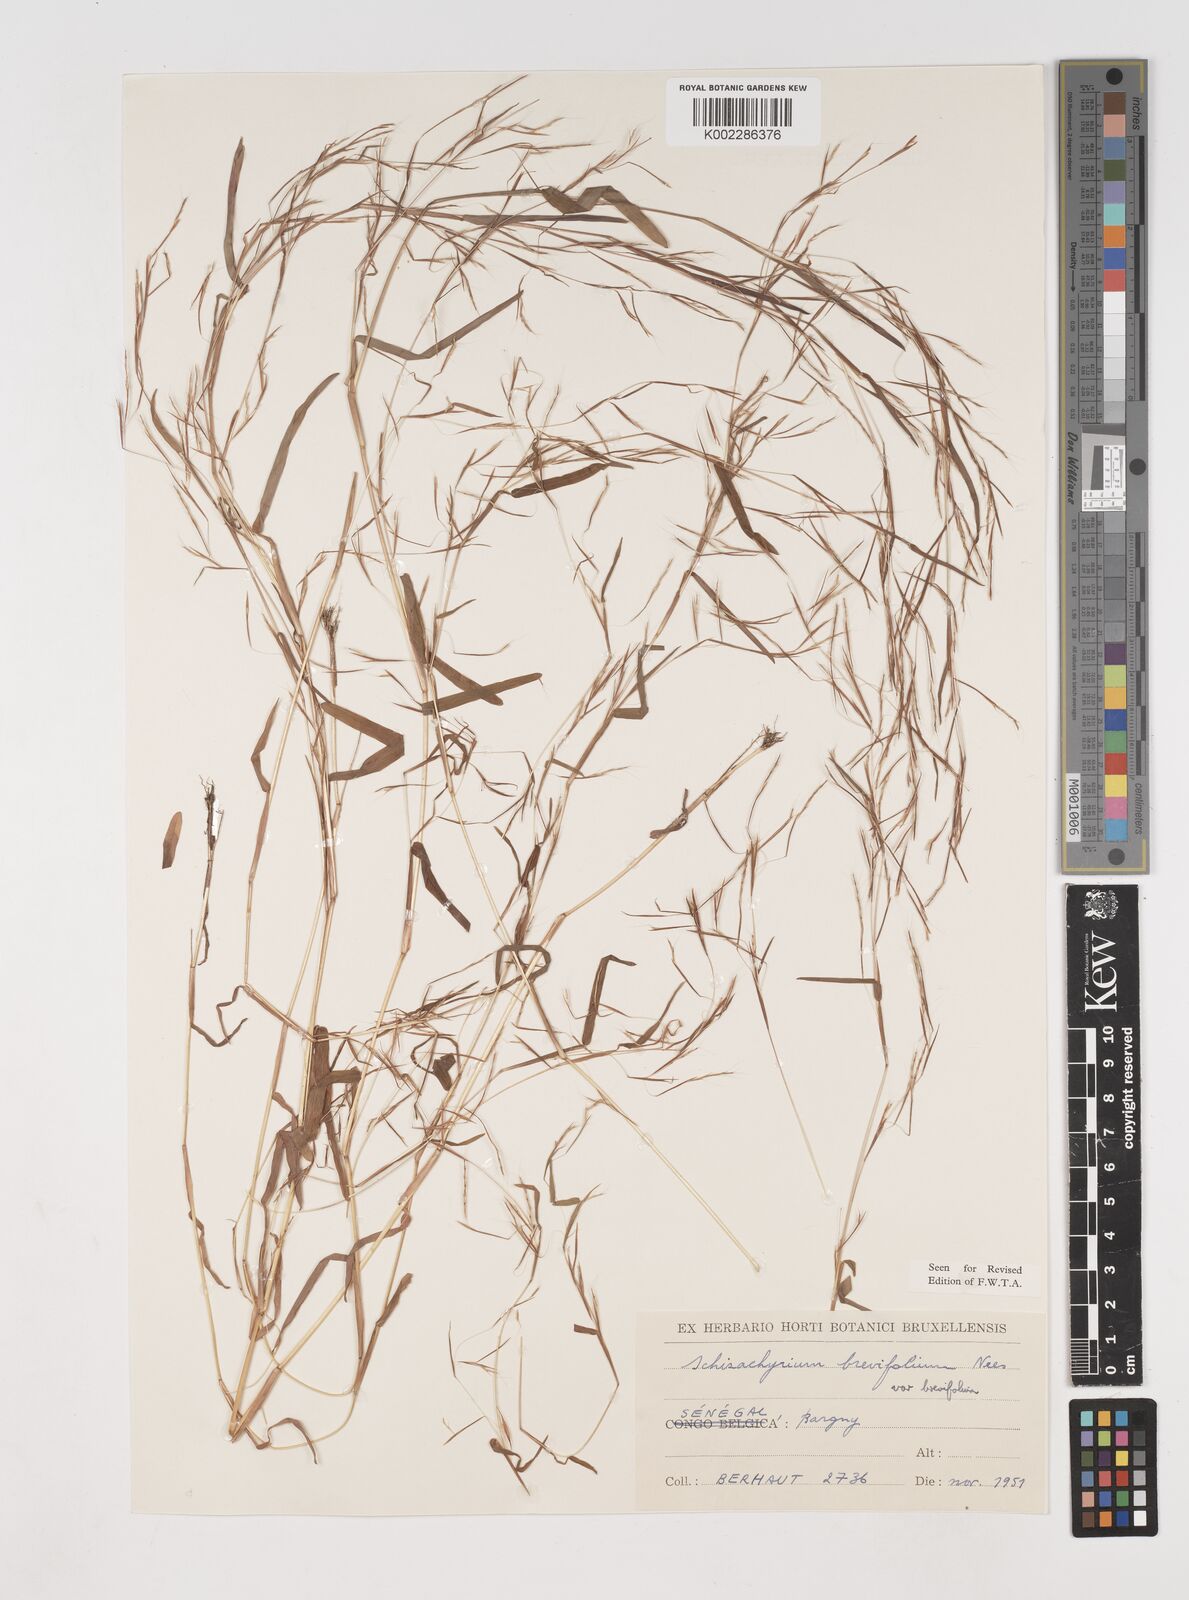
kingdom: Plantae
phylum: Tracheophyta
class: Liliopsida
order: Poales
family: Poaceae
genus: Schizachyrium
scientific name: Schizachyrium brevifolium
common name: Serillo dulce
